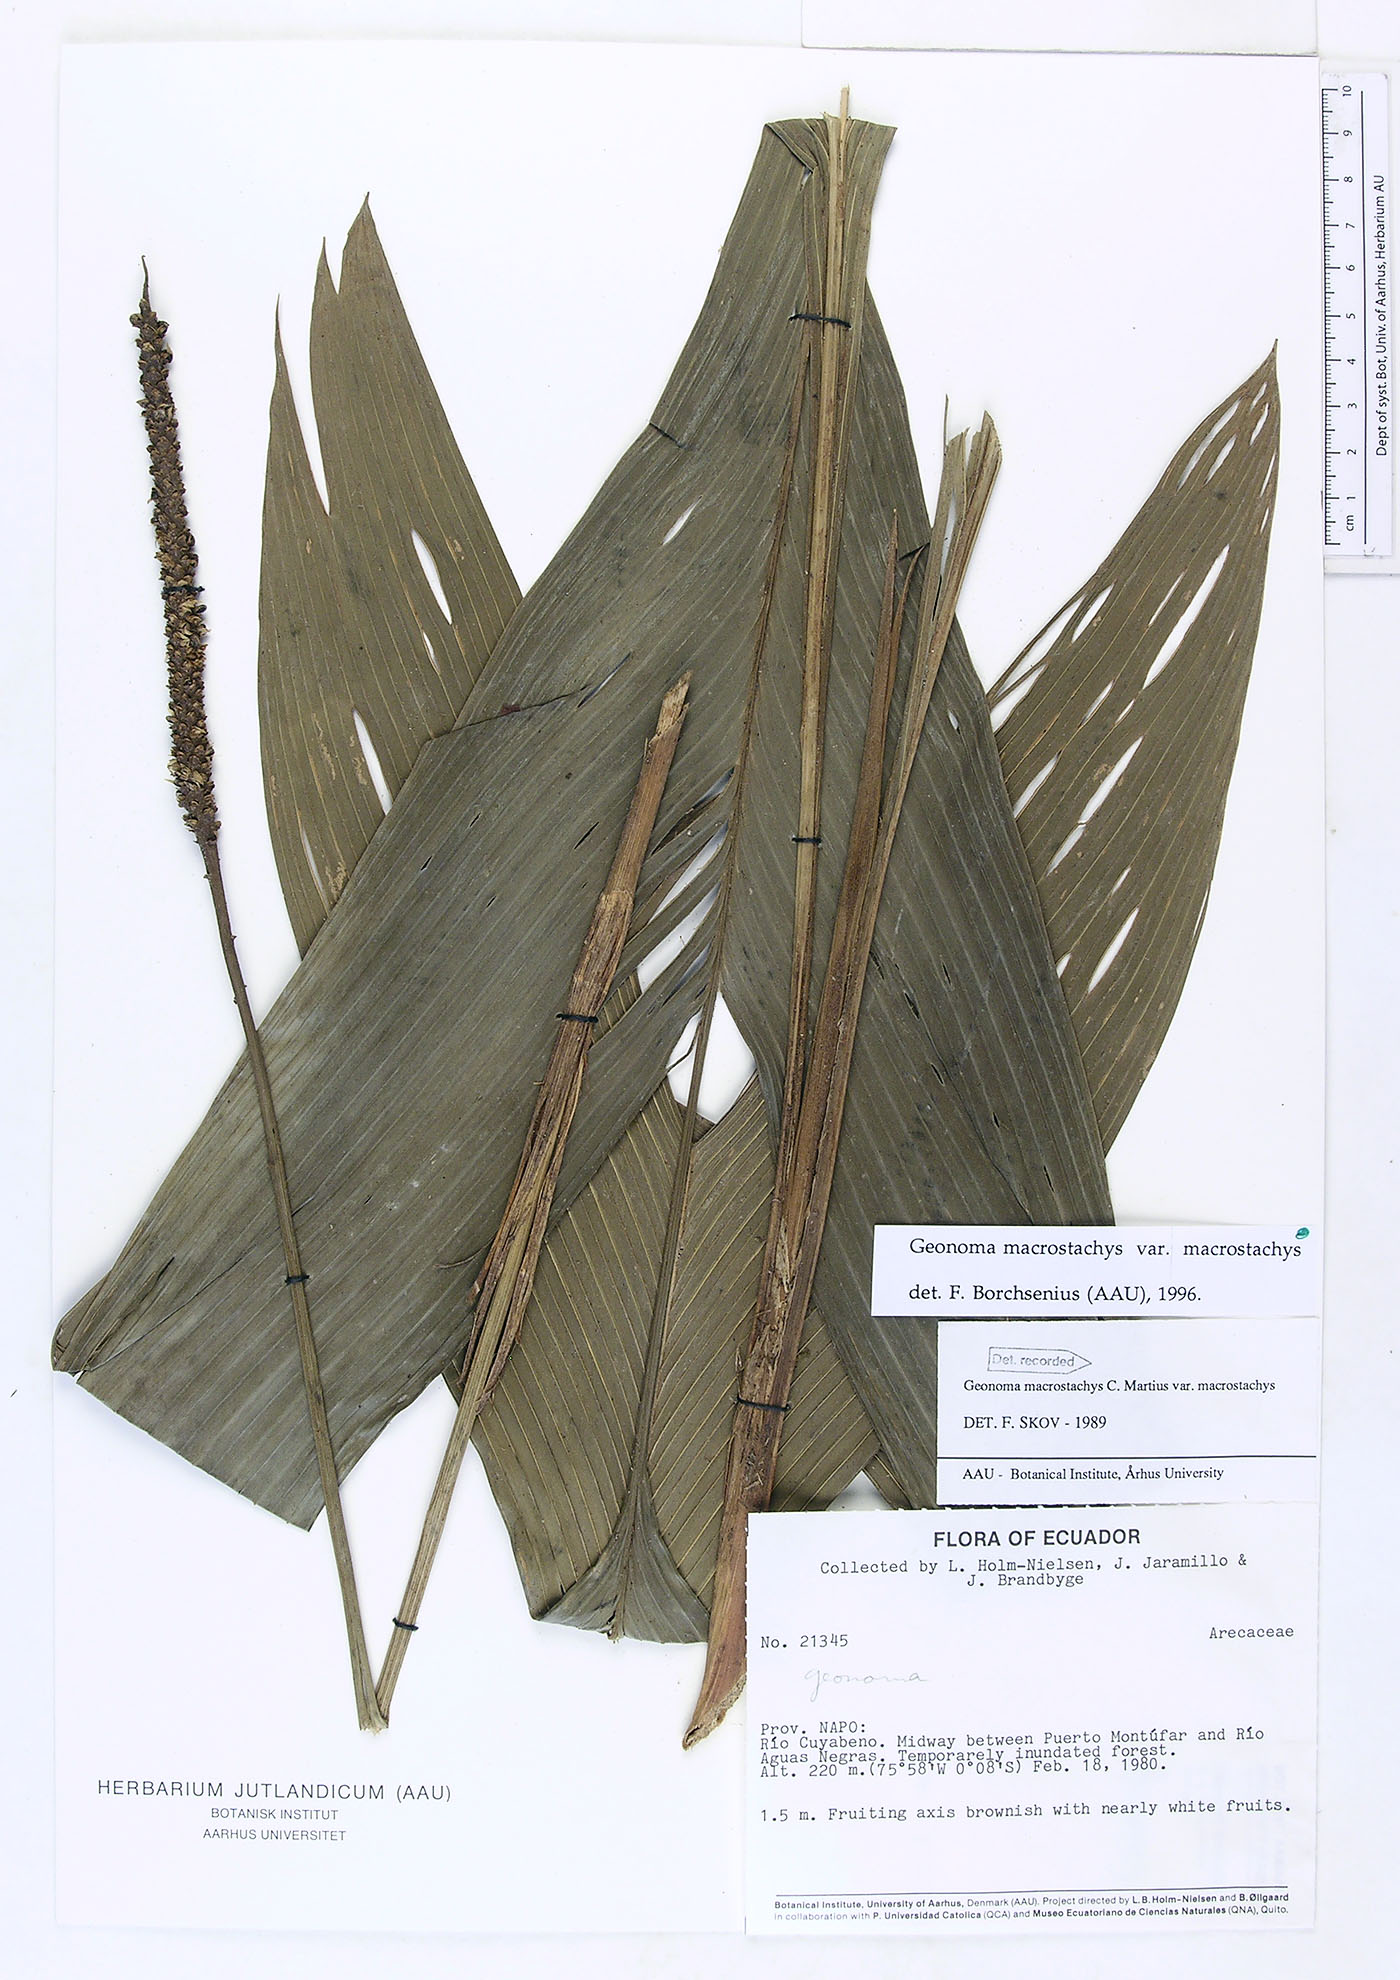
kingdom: Plantae
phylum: Tracheophyta
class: Liliopsida
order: Arecales
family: Arecaceae
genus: Geonoma
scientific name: Geonoma macrostachys
